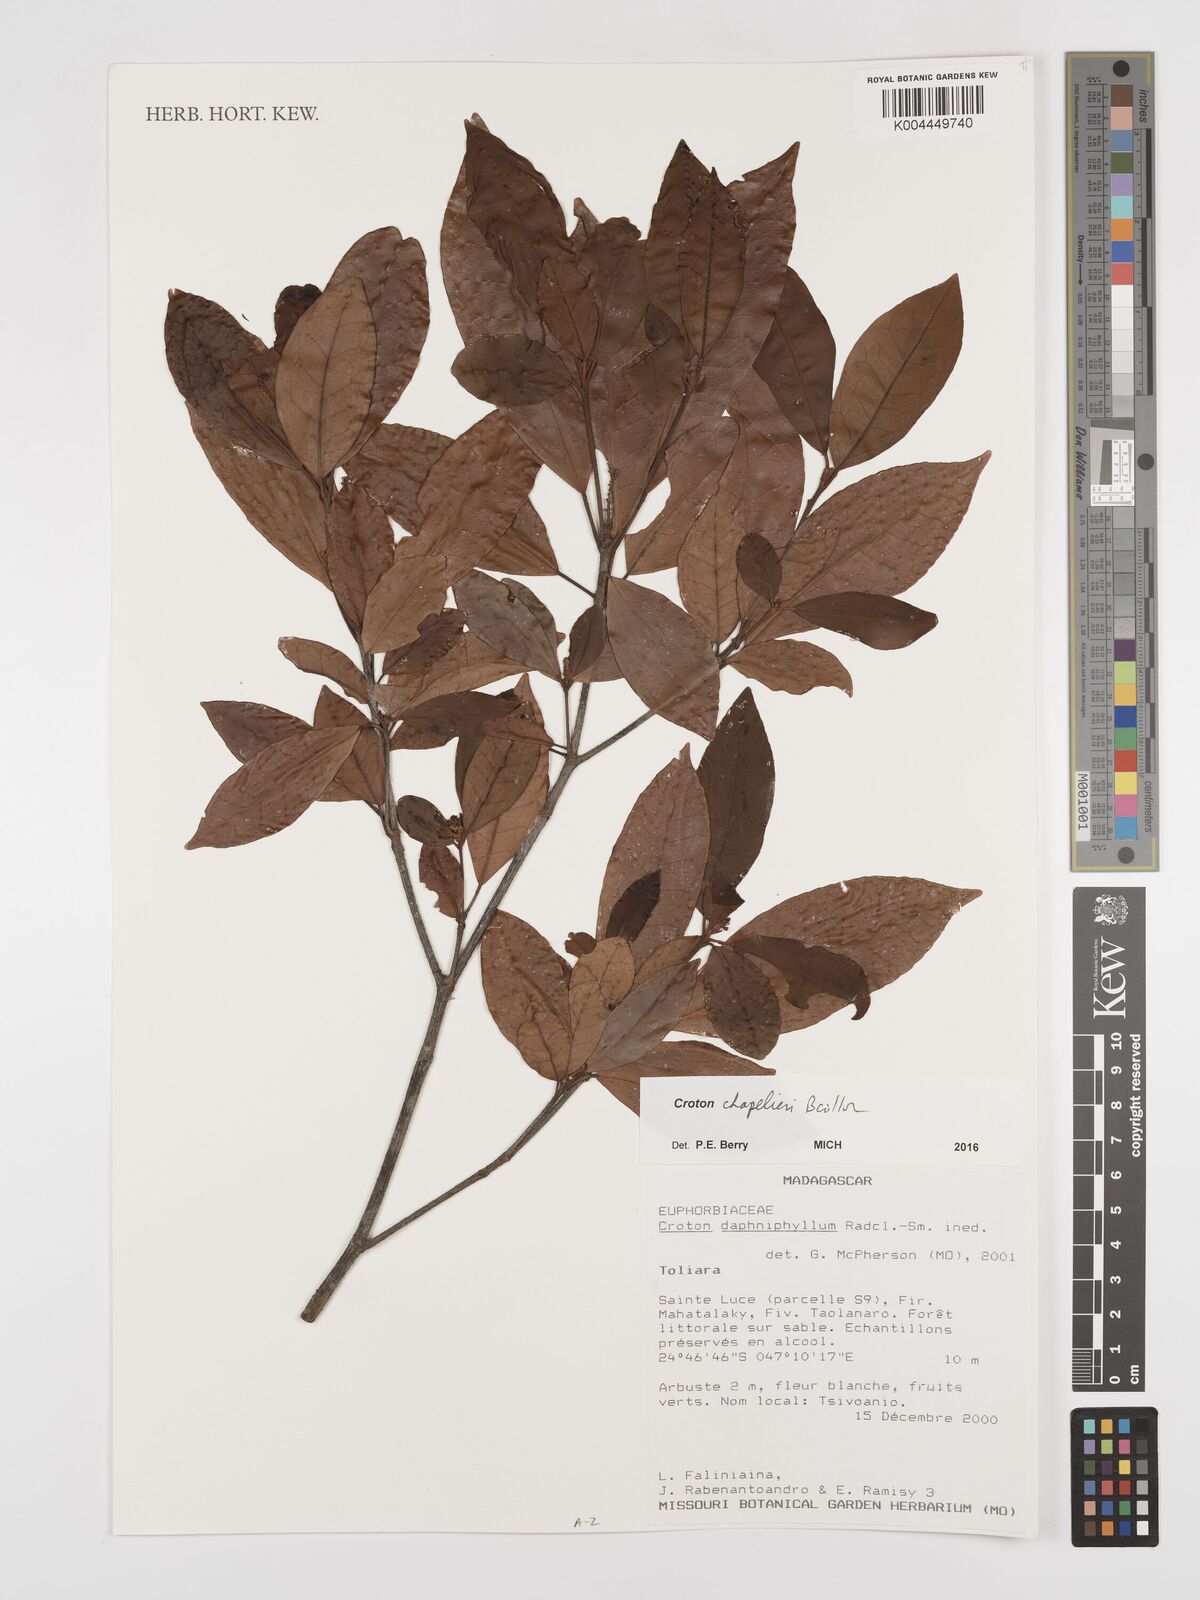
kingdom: Plantae
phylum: Tracheophyta
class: Magnoliopsida
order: Malpighiales
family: Euphorbiaceae
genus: Croton
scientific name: Croton chapelieri
